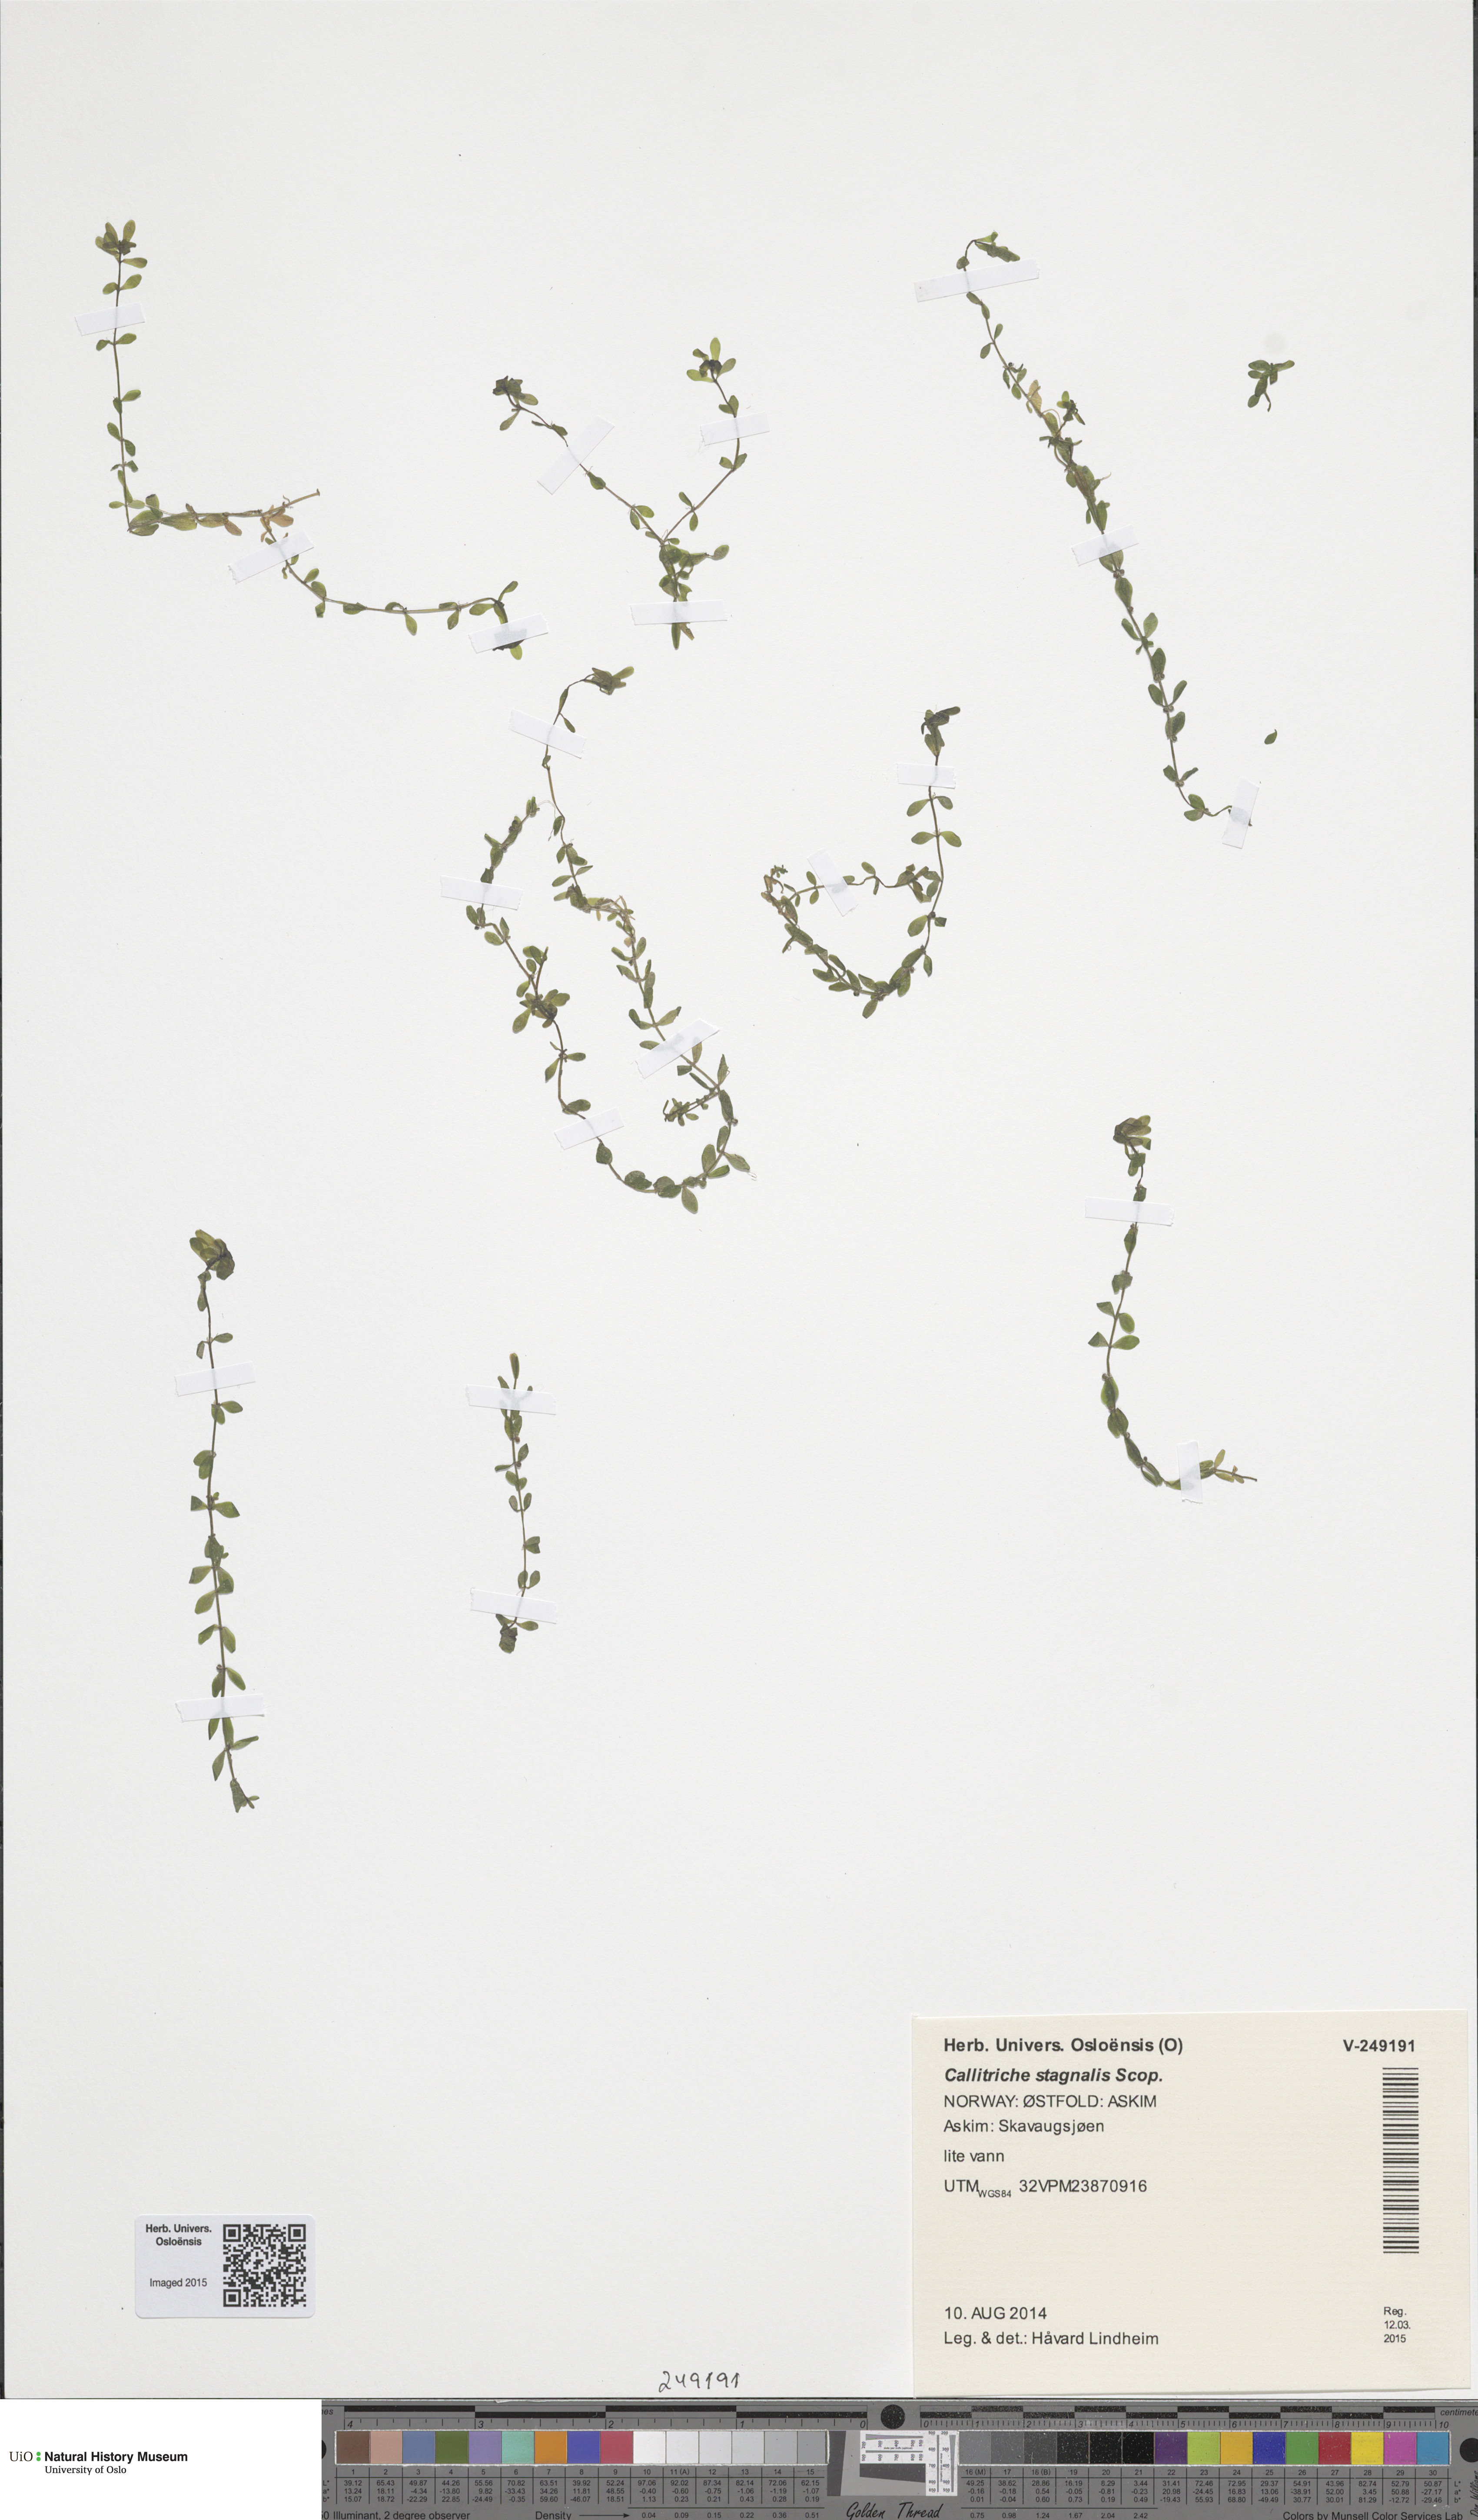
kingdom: Plantae
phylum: Tracheophyta
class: Magnoliopsida
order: Lamiales
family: Plantaginaceae
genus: Callitriche
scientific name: Callitriche stagnalis
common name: Common water-starwort
